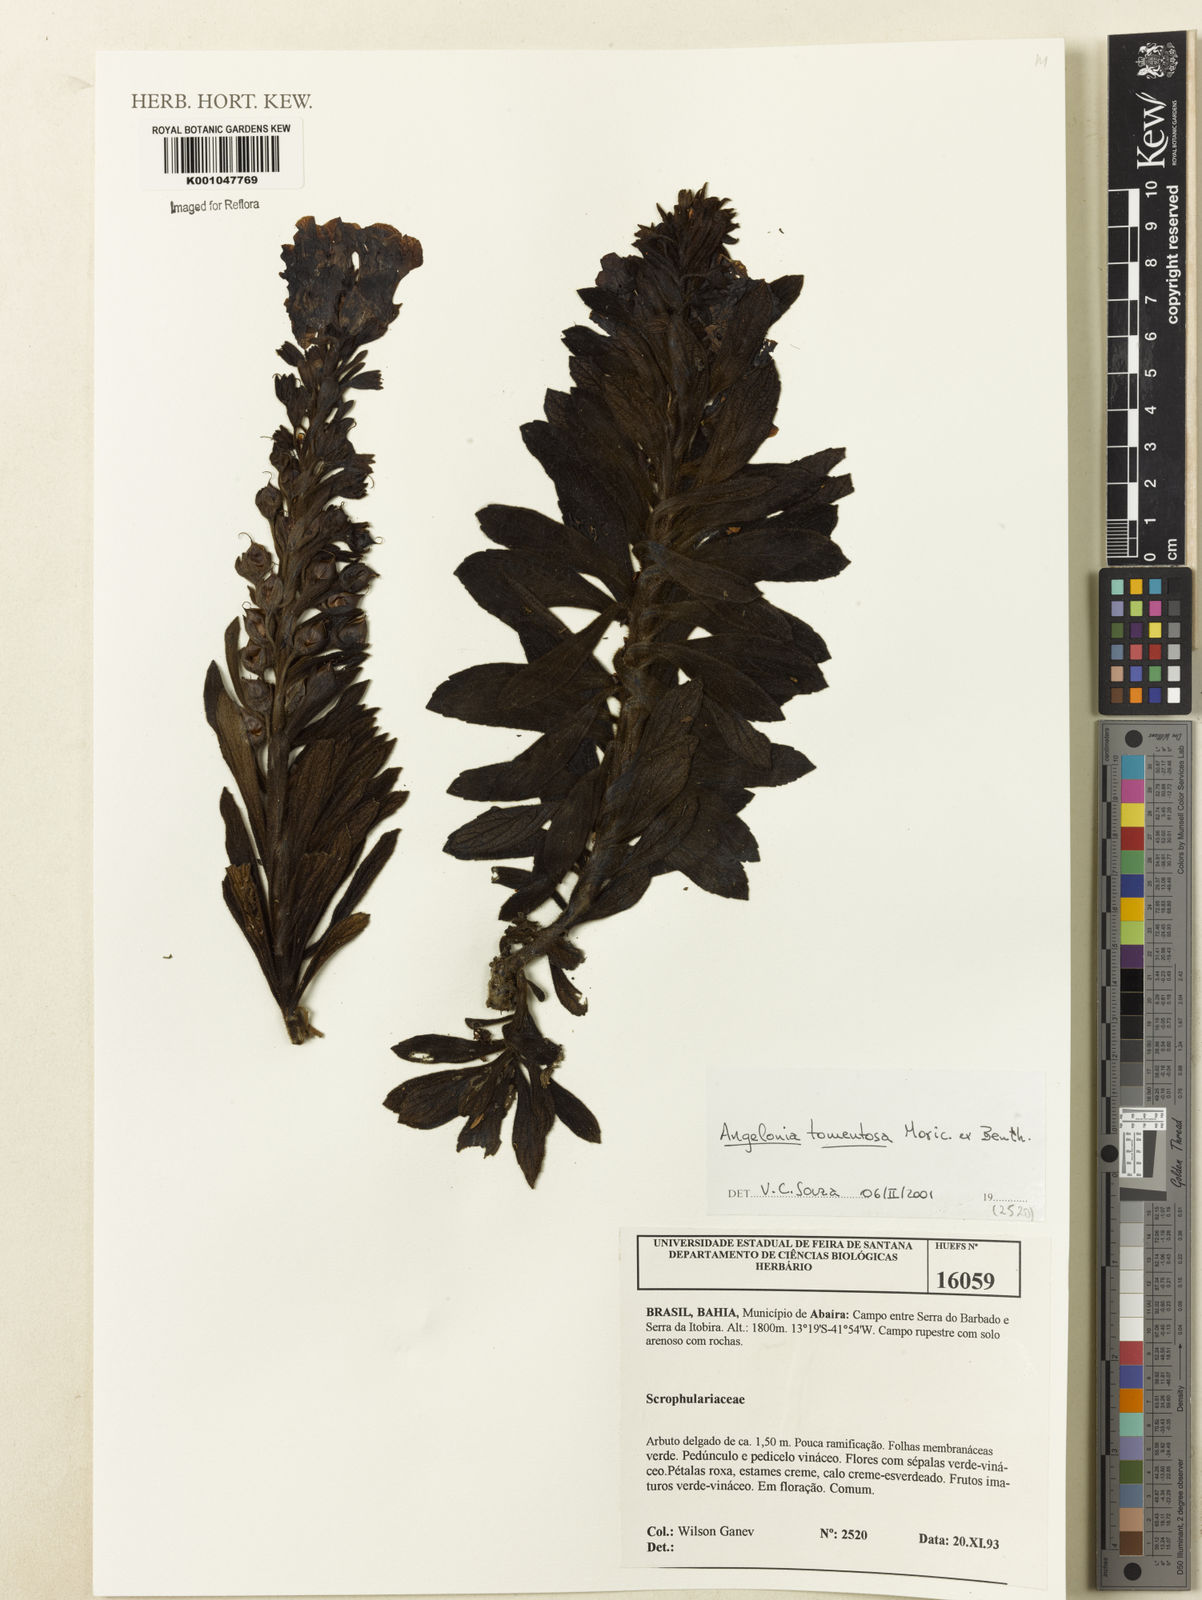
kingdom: Plantae
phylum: Tracheophyta
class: Magnoliopsida
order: Lamiales
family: Plantaginaceae
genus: Angelonia
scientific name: Angelonia tomentosa
